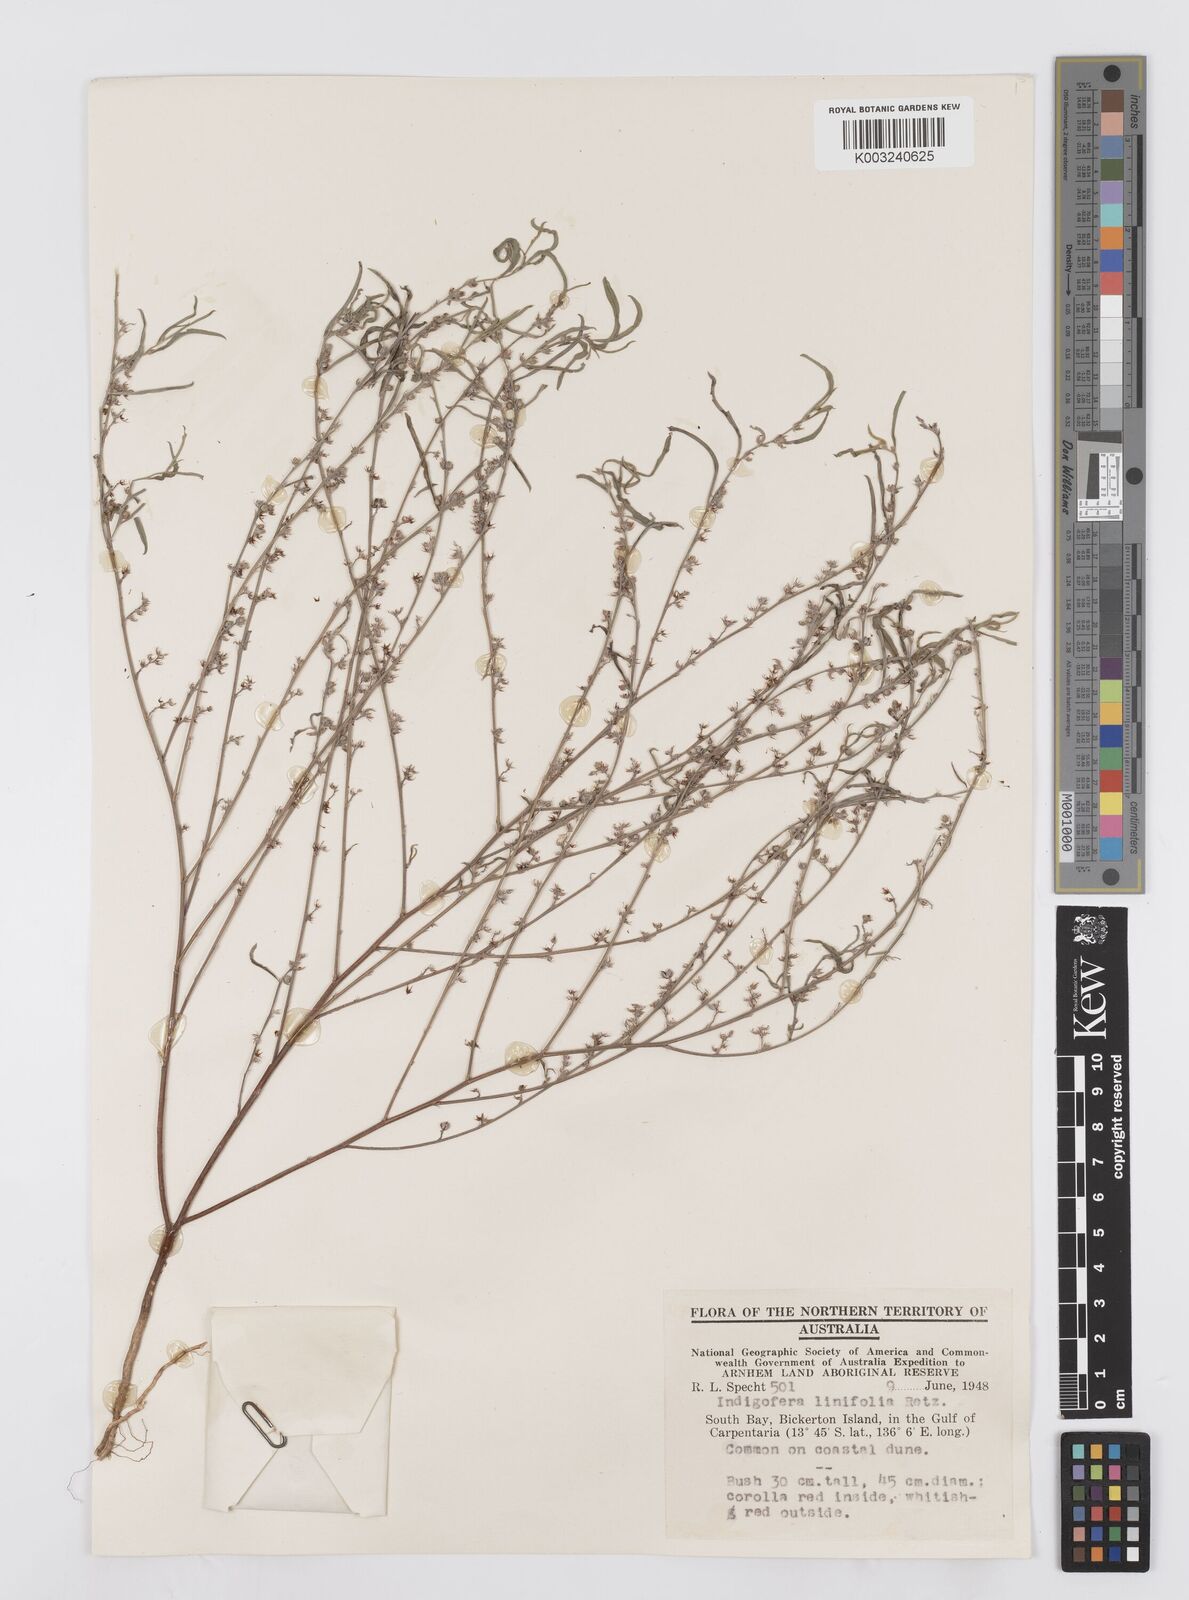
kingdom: Plantae
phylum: Tracheophyta
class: Magnoliopsida
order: Fabales
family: Fabaceae
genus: Indigofera
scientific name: Indigofera linifolia
